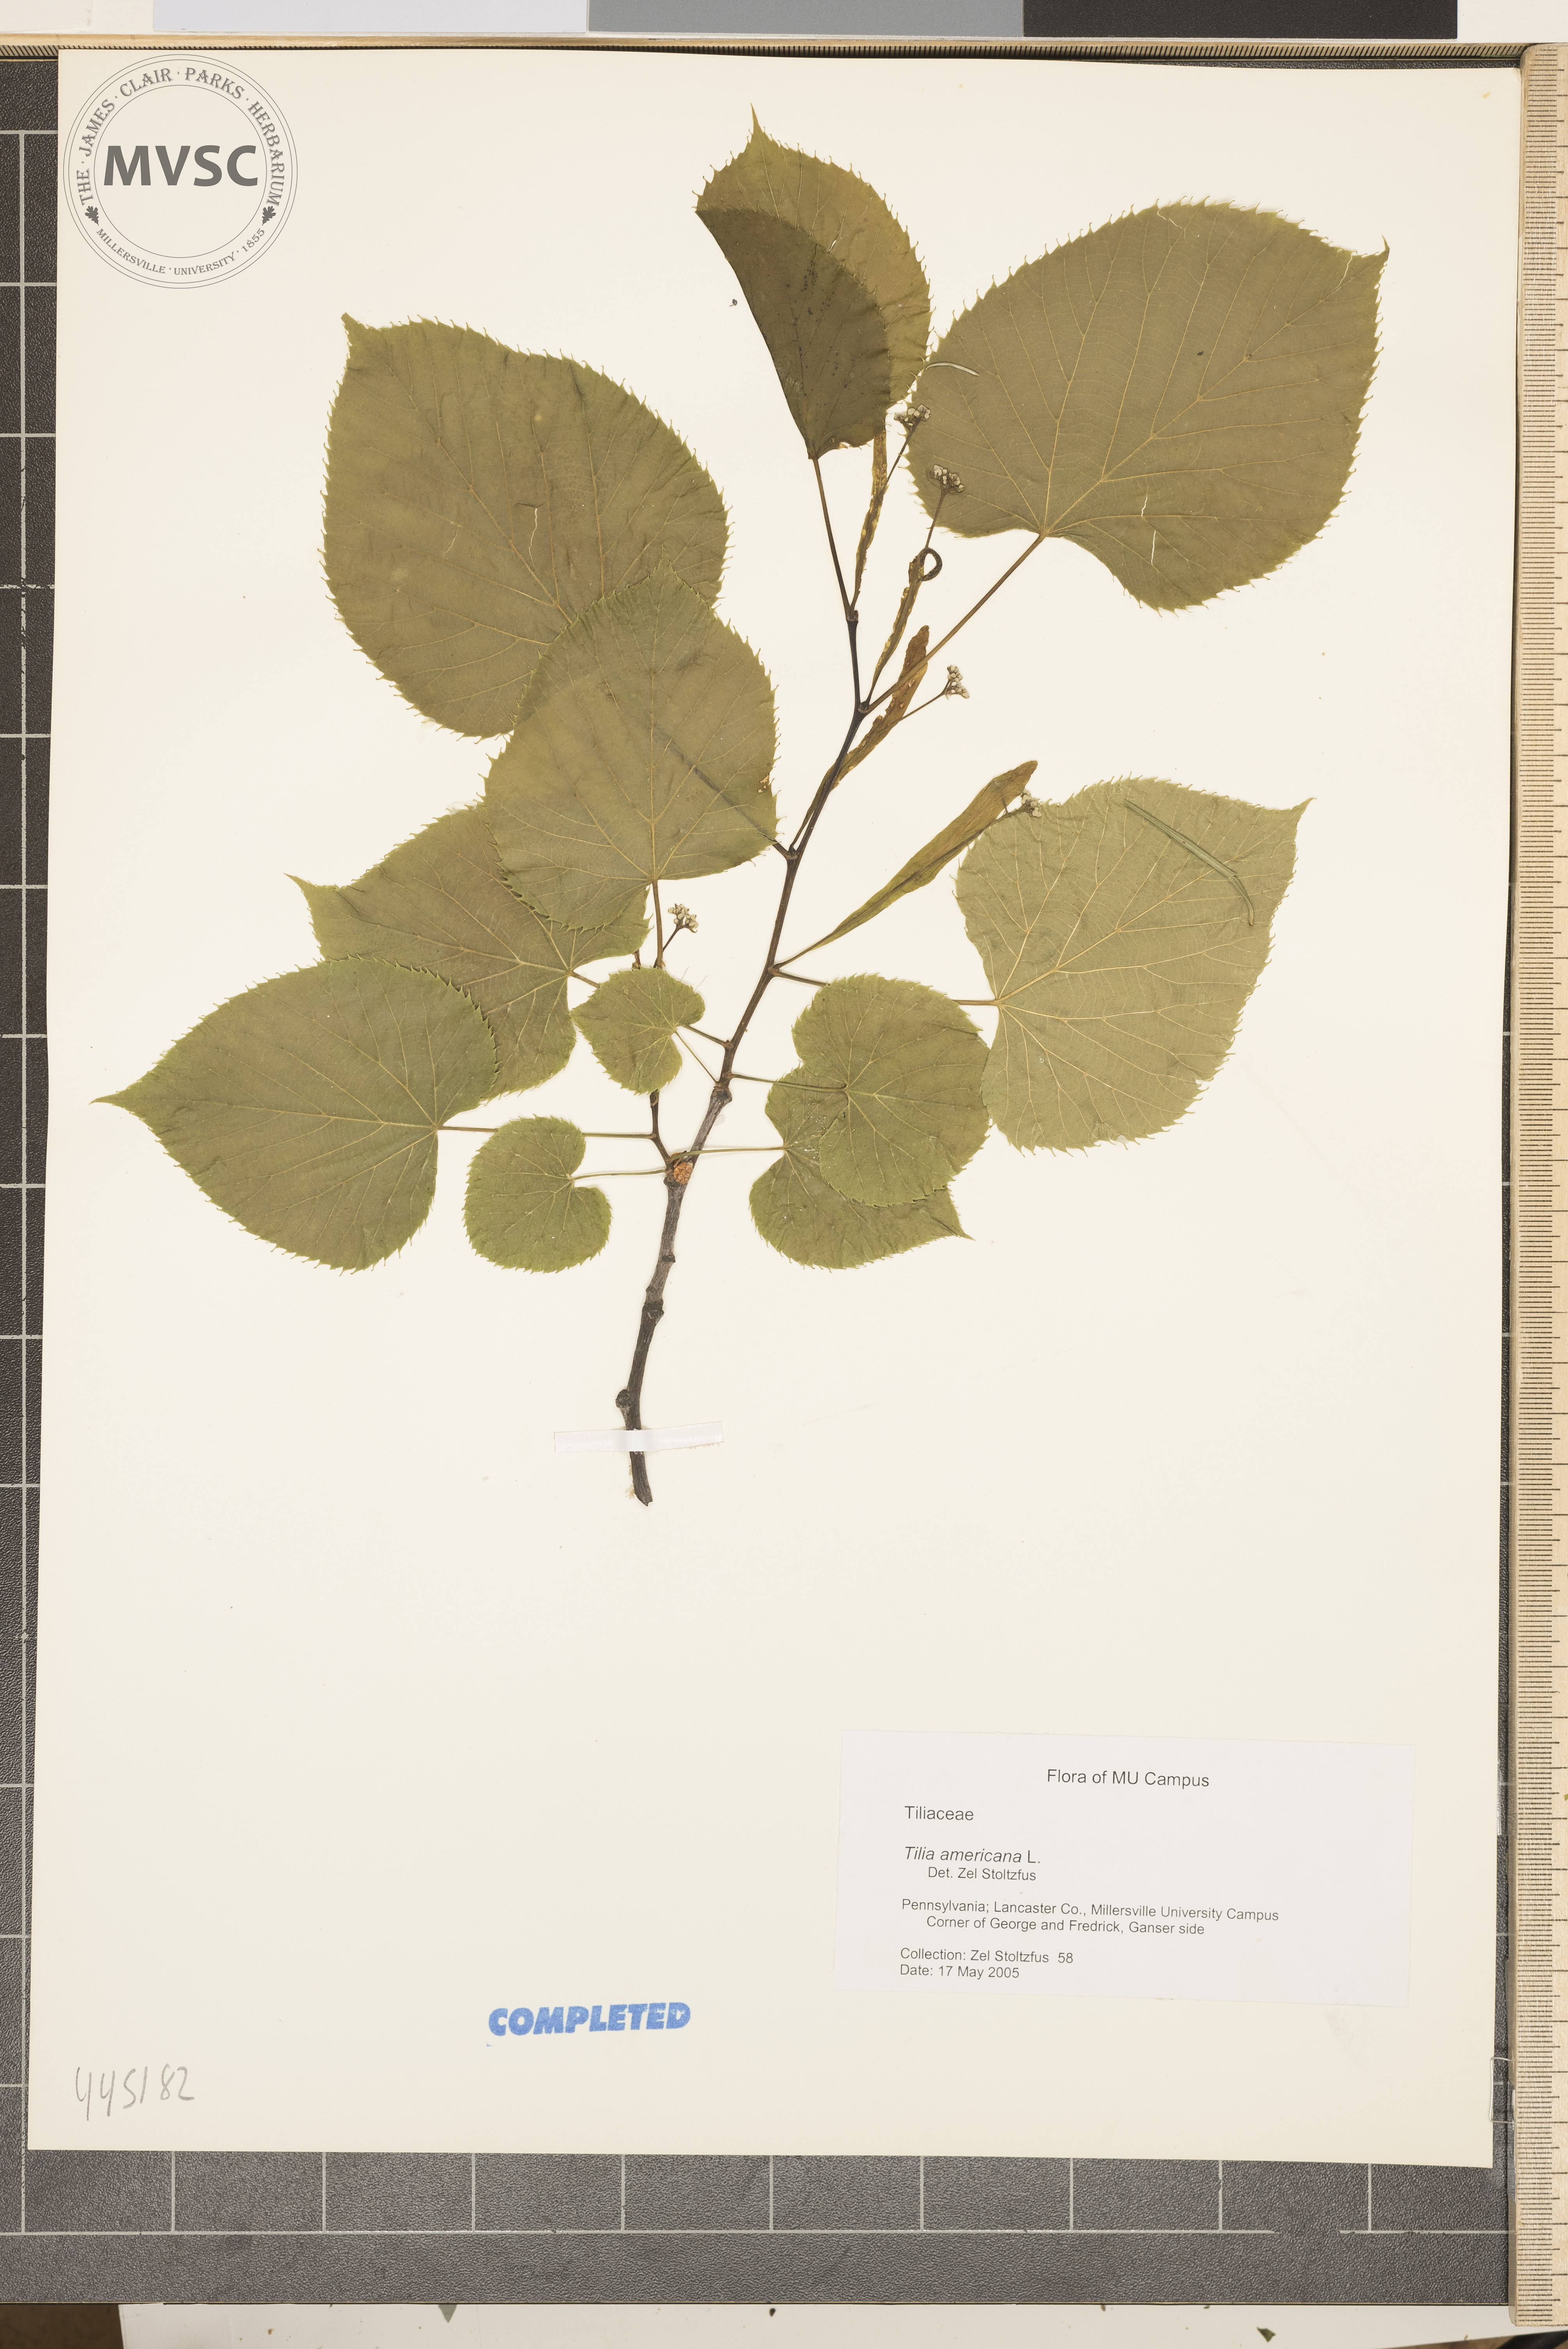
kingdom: Plantae
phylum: Tracheophyta
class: Magnoliopsida
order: Malvales
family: Malvaceae
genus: Tilia
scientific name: Tilia americana
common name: Basswood
